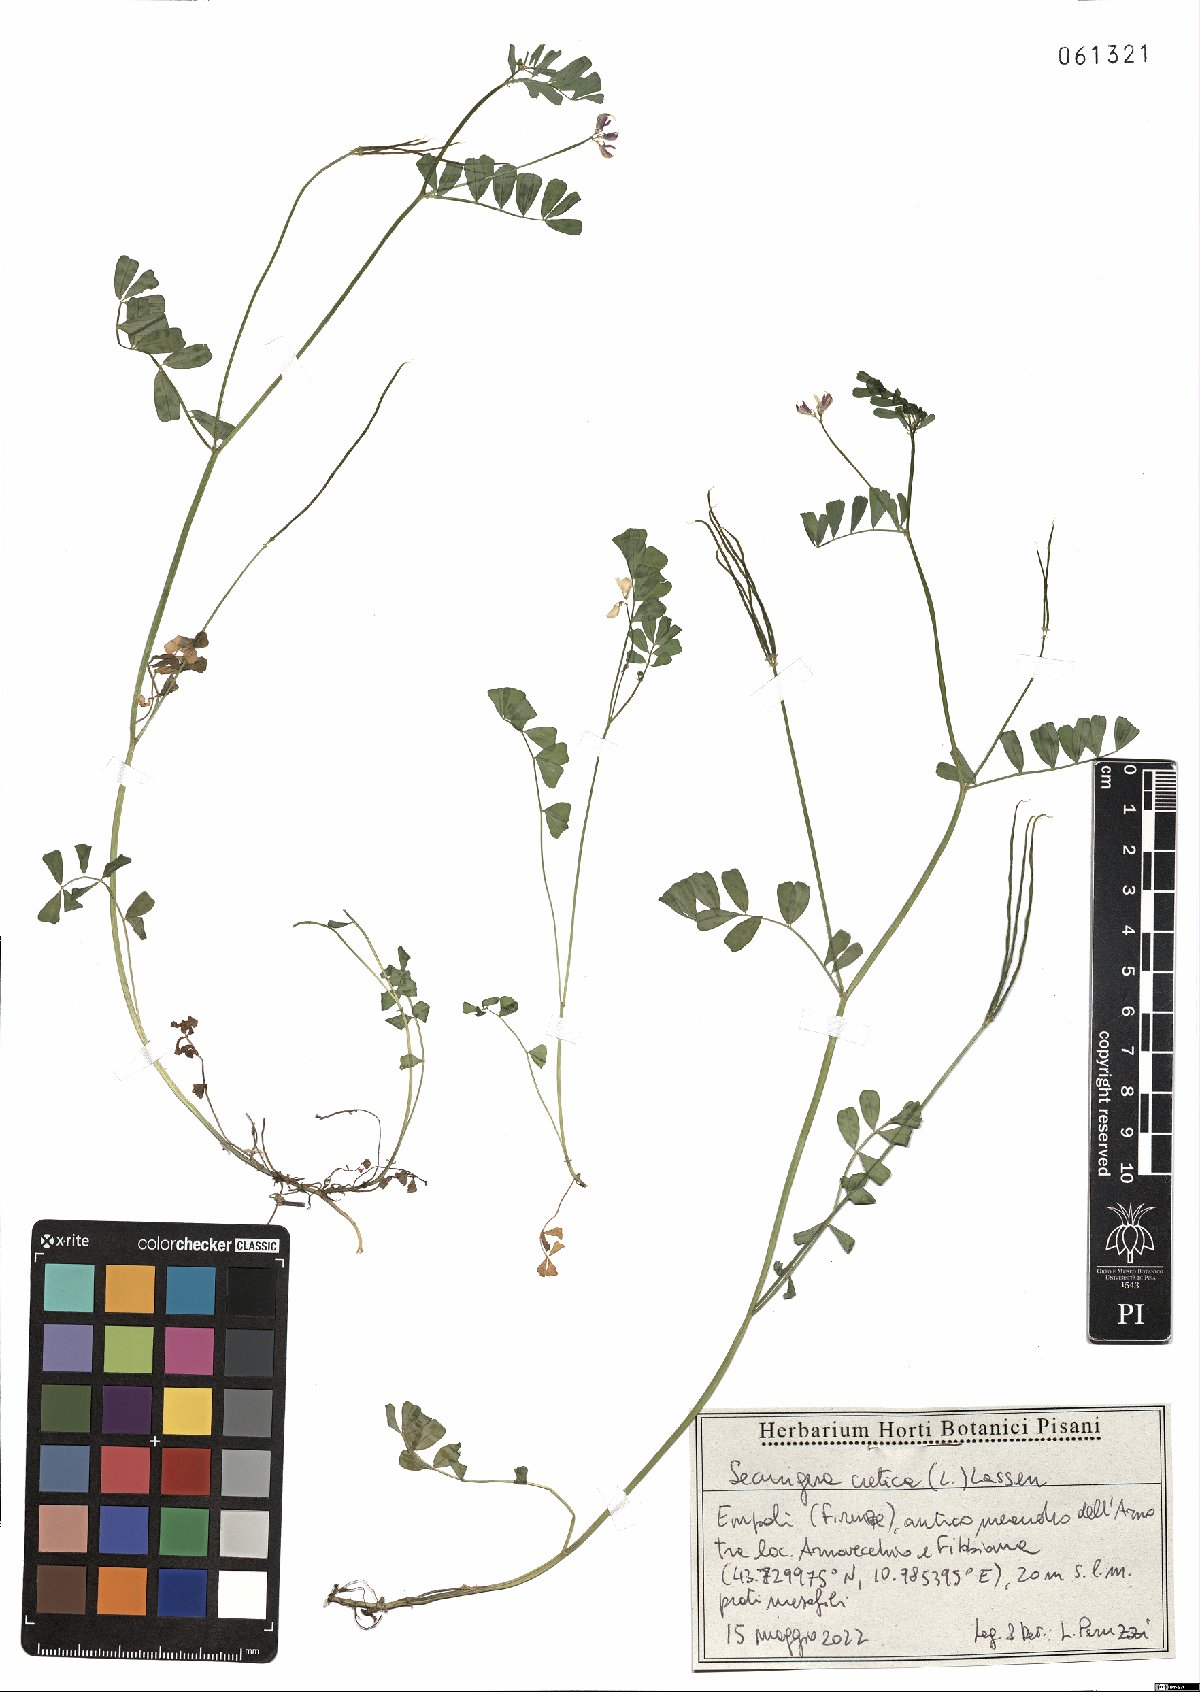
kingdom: Plantae
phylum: Tracheophyta
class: Magnoliopsida
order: Fabales
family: Fabaceae
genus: Coronilla
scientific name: Coronilla cretica
